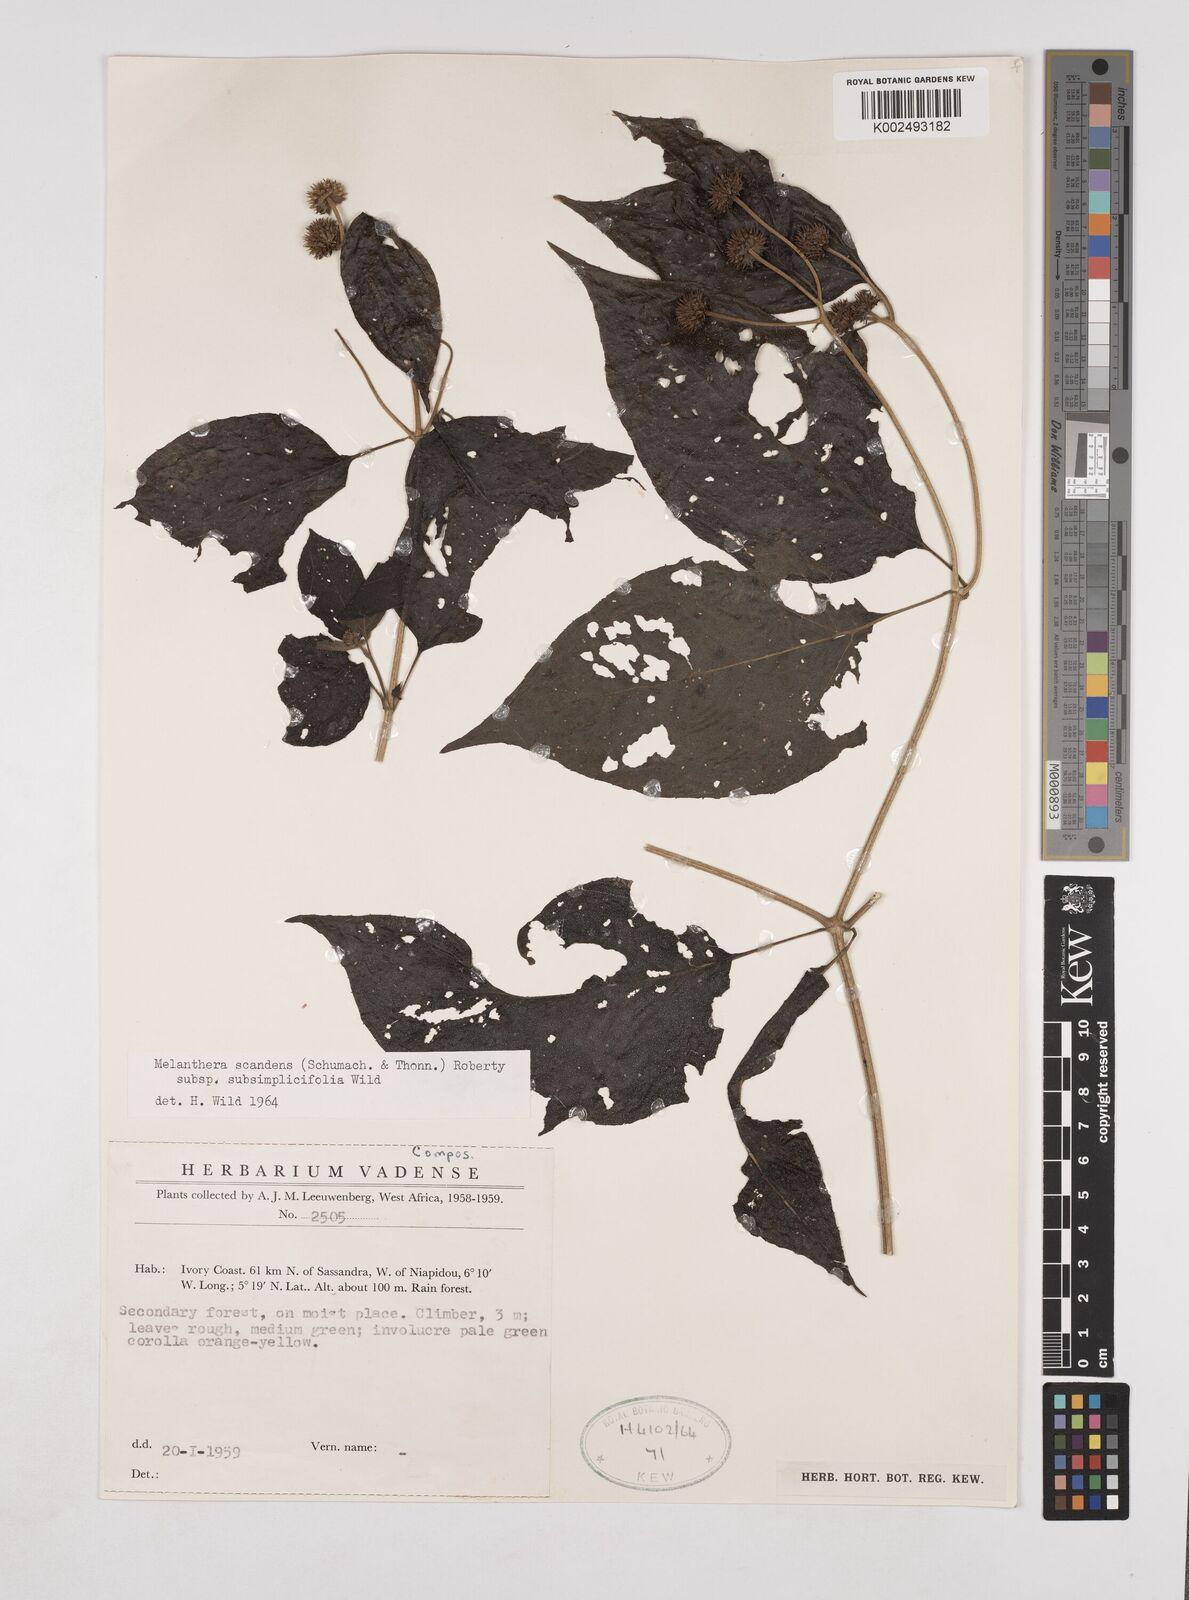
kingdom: Plantae
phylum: Tracheophyta
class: Magnoliopsida
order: Asterales
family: Asteraceae
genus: Lipotriche
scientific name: Lipotriche scandens
